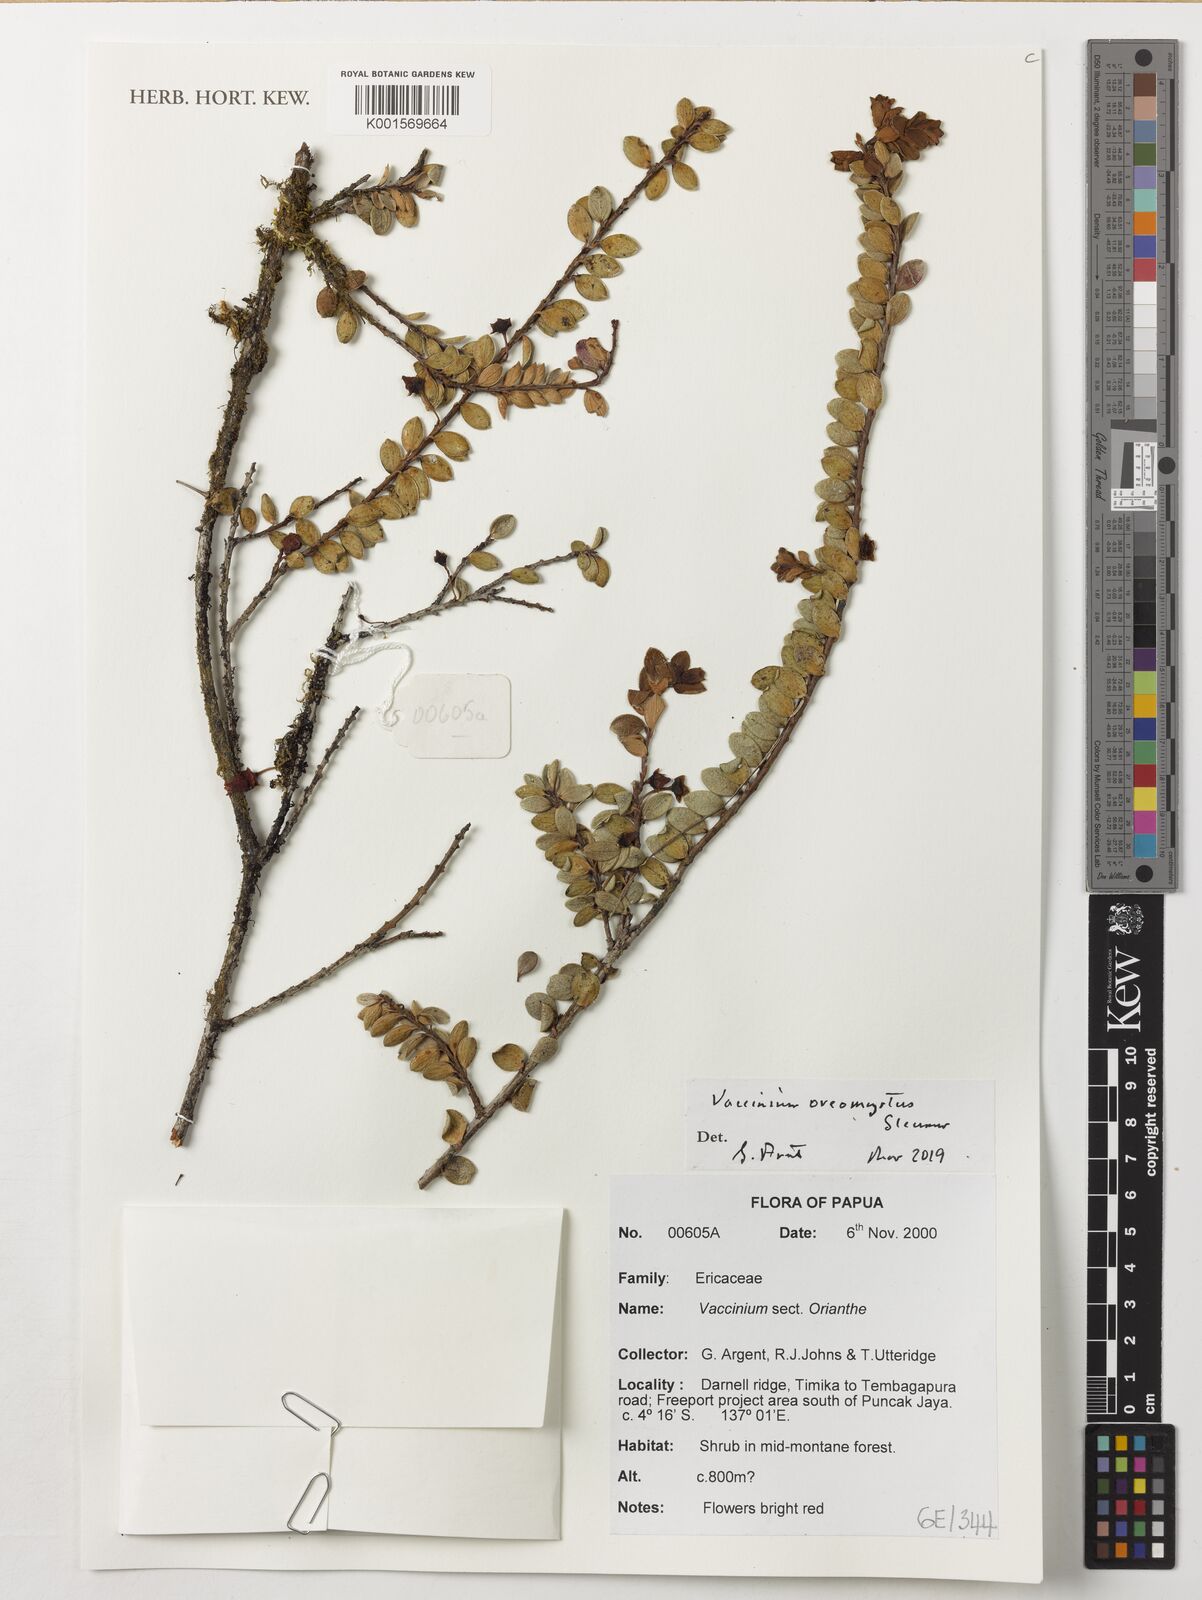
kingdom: Plantae
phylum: Tracheophyta
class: Magnoliopsida
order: Ericales
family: Ericaceae
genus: Vaccinium
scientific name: Vaccinium oreomyrtus
